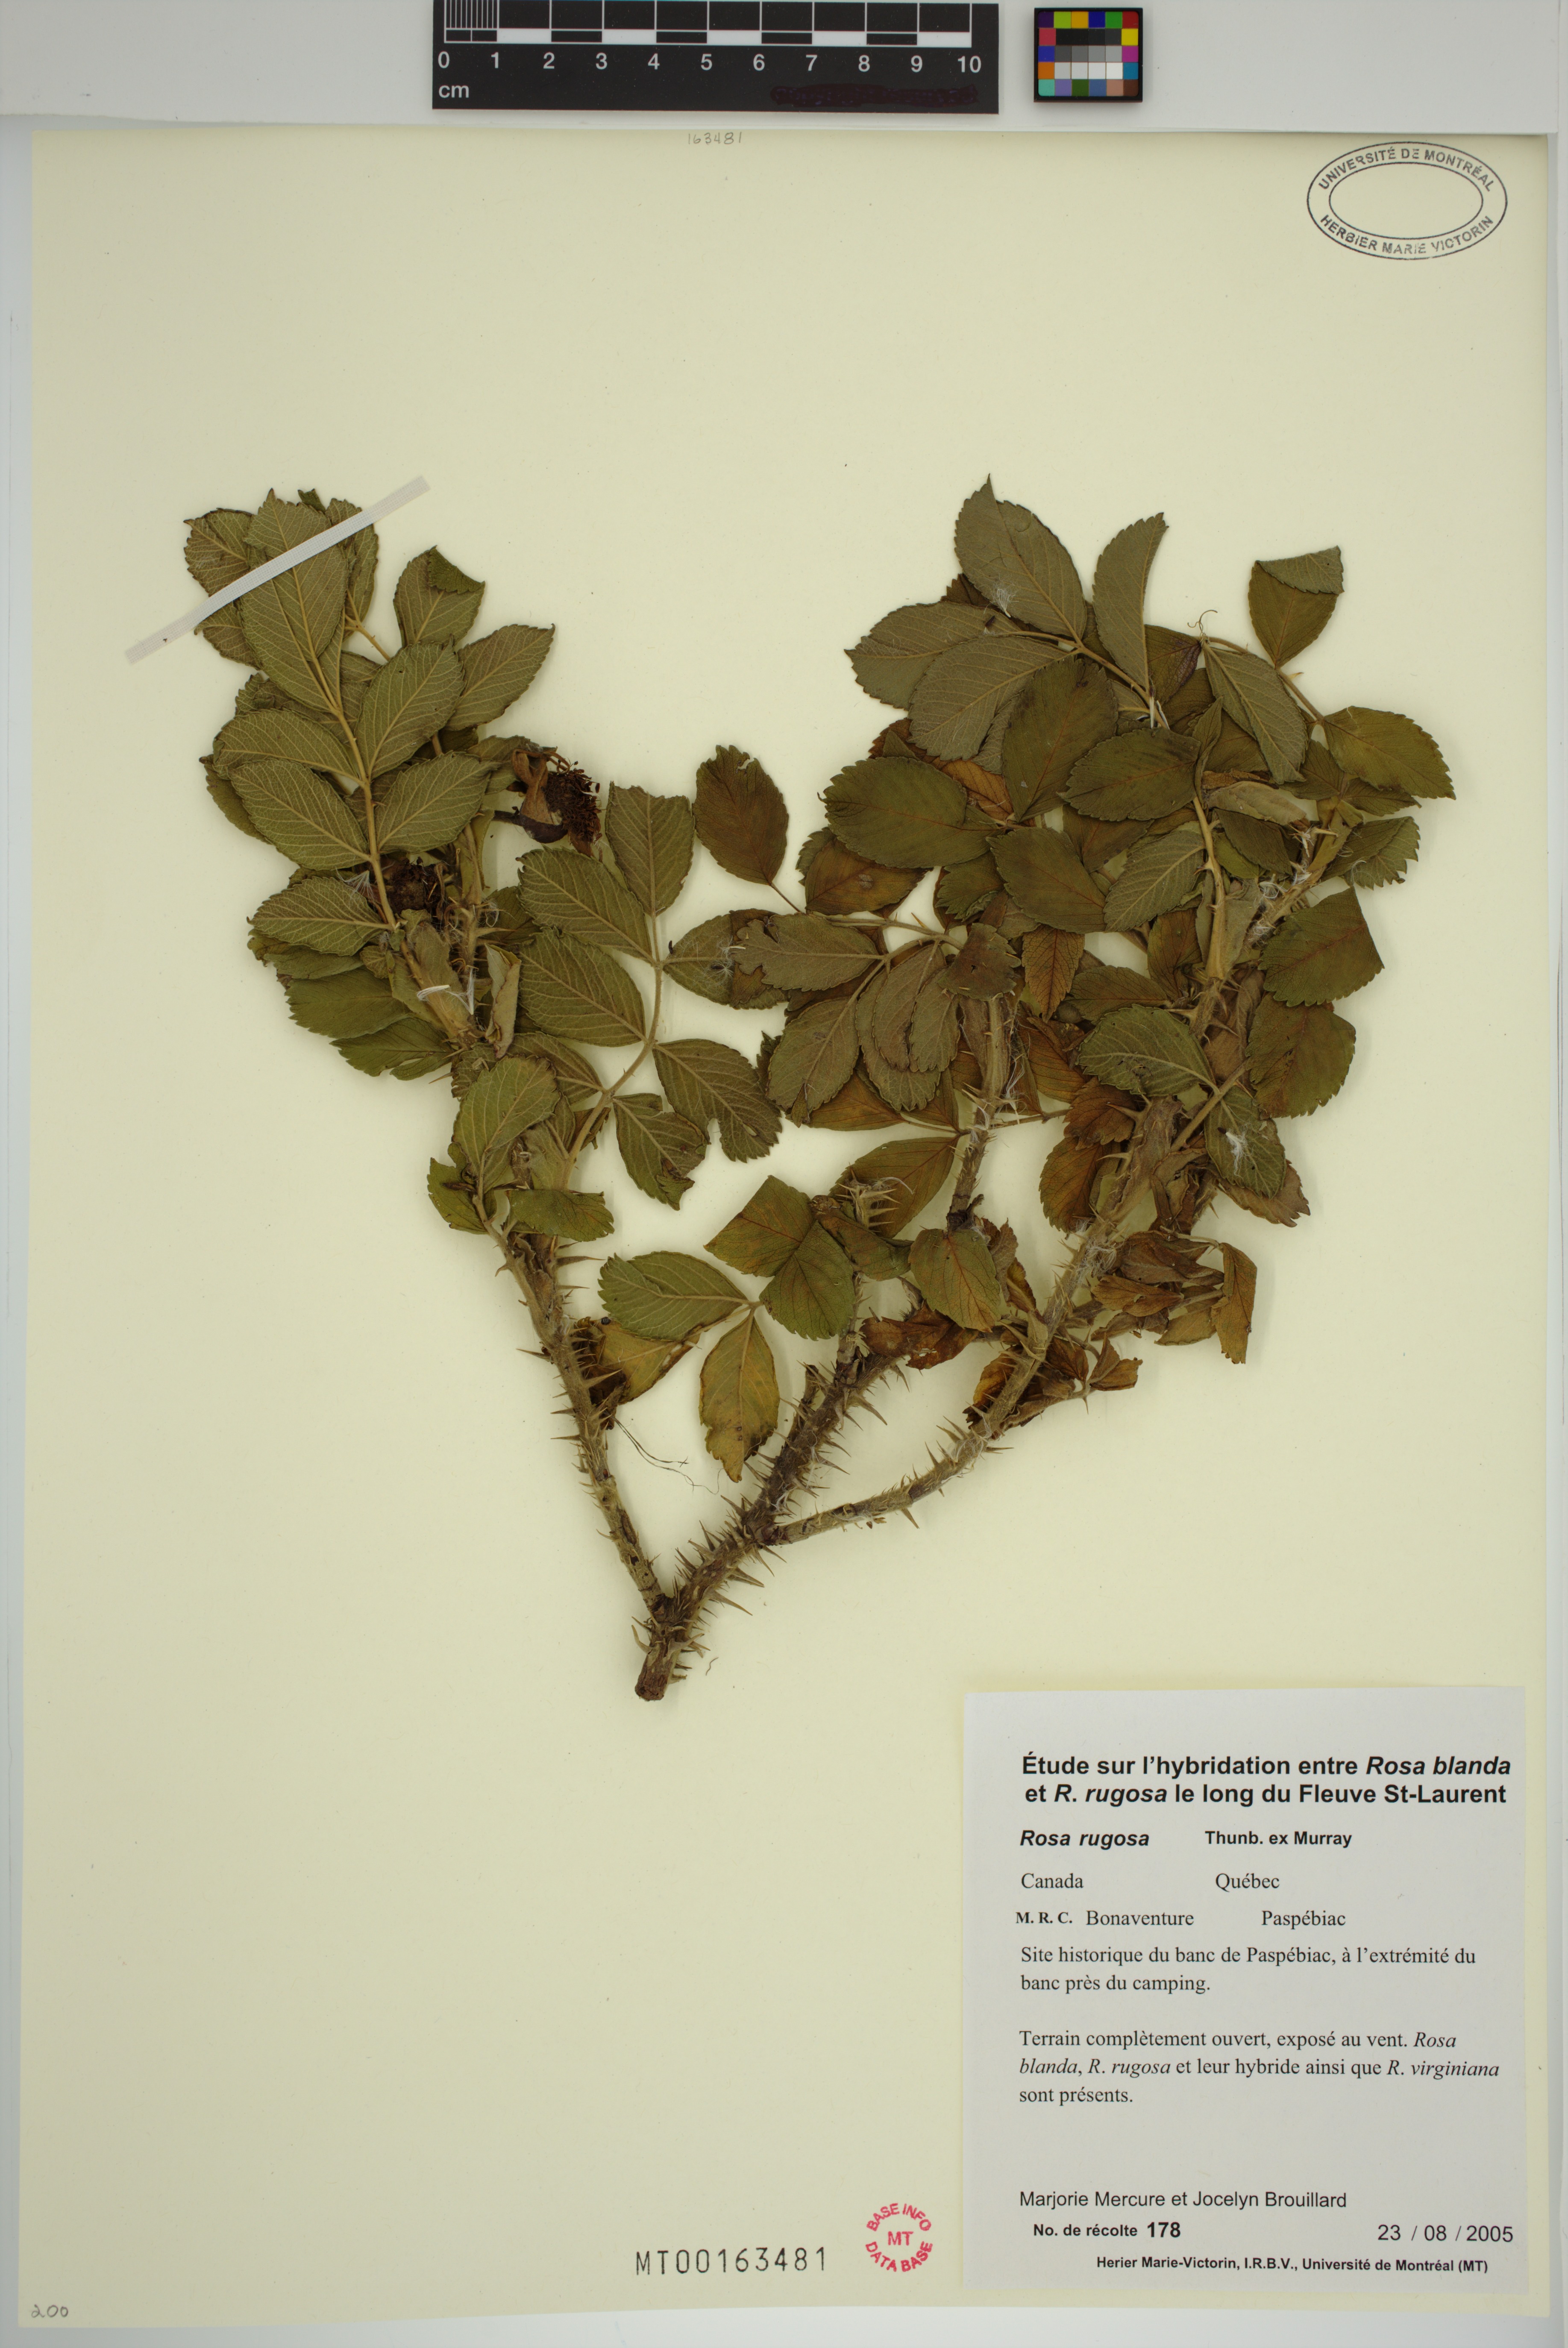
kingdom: Plantae
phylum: Tracheophyta
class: Magnoliopsida
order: Rosales
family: Rosaceae
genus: Rosa
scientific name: Rosa rugosa
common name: Japanese rose
